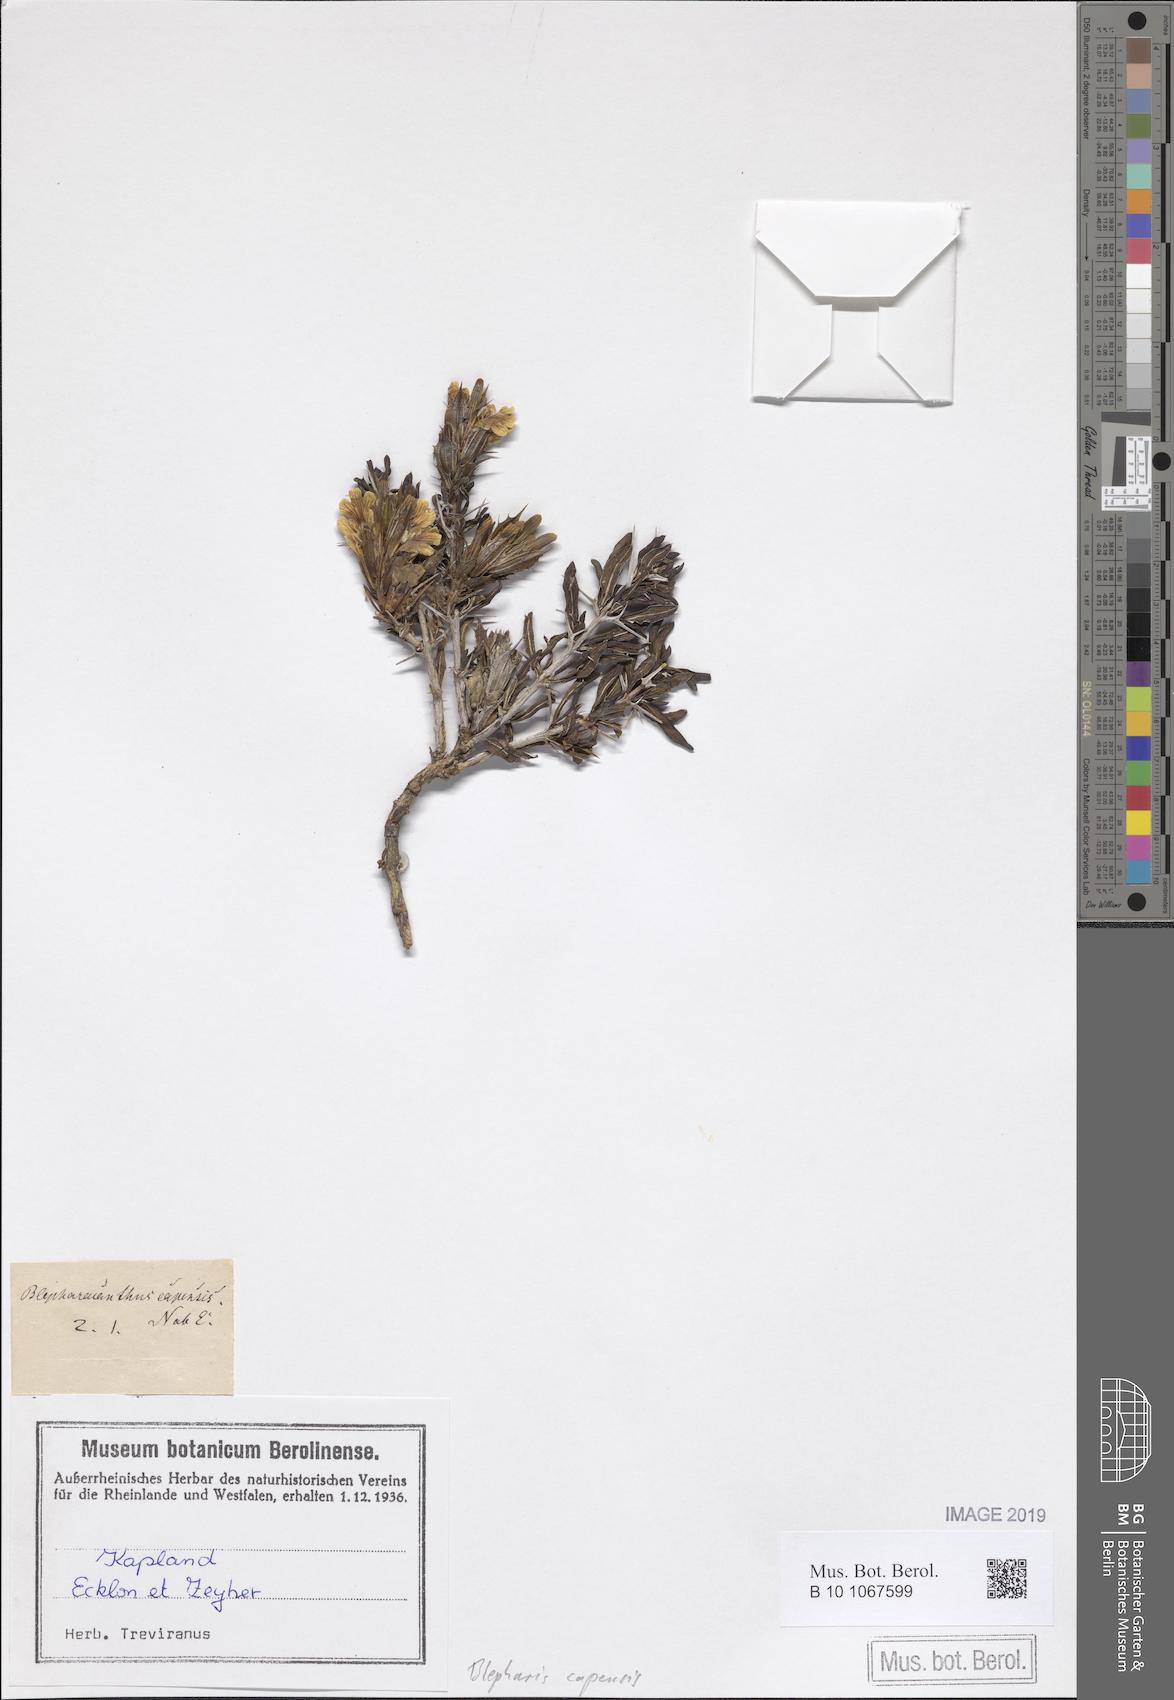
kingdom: Plantae
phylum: Tracheophyta
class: Magnoliopsida
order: Lamiales
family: Acanthaceae
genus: Blepharis
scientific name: Blepharis capensis
